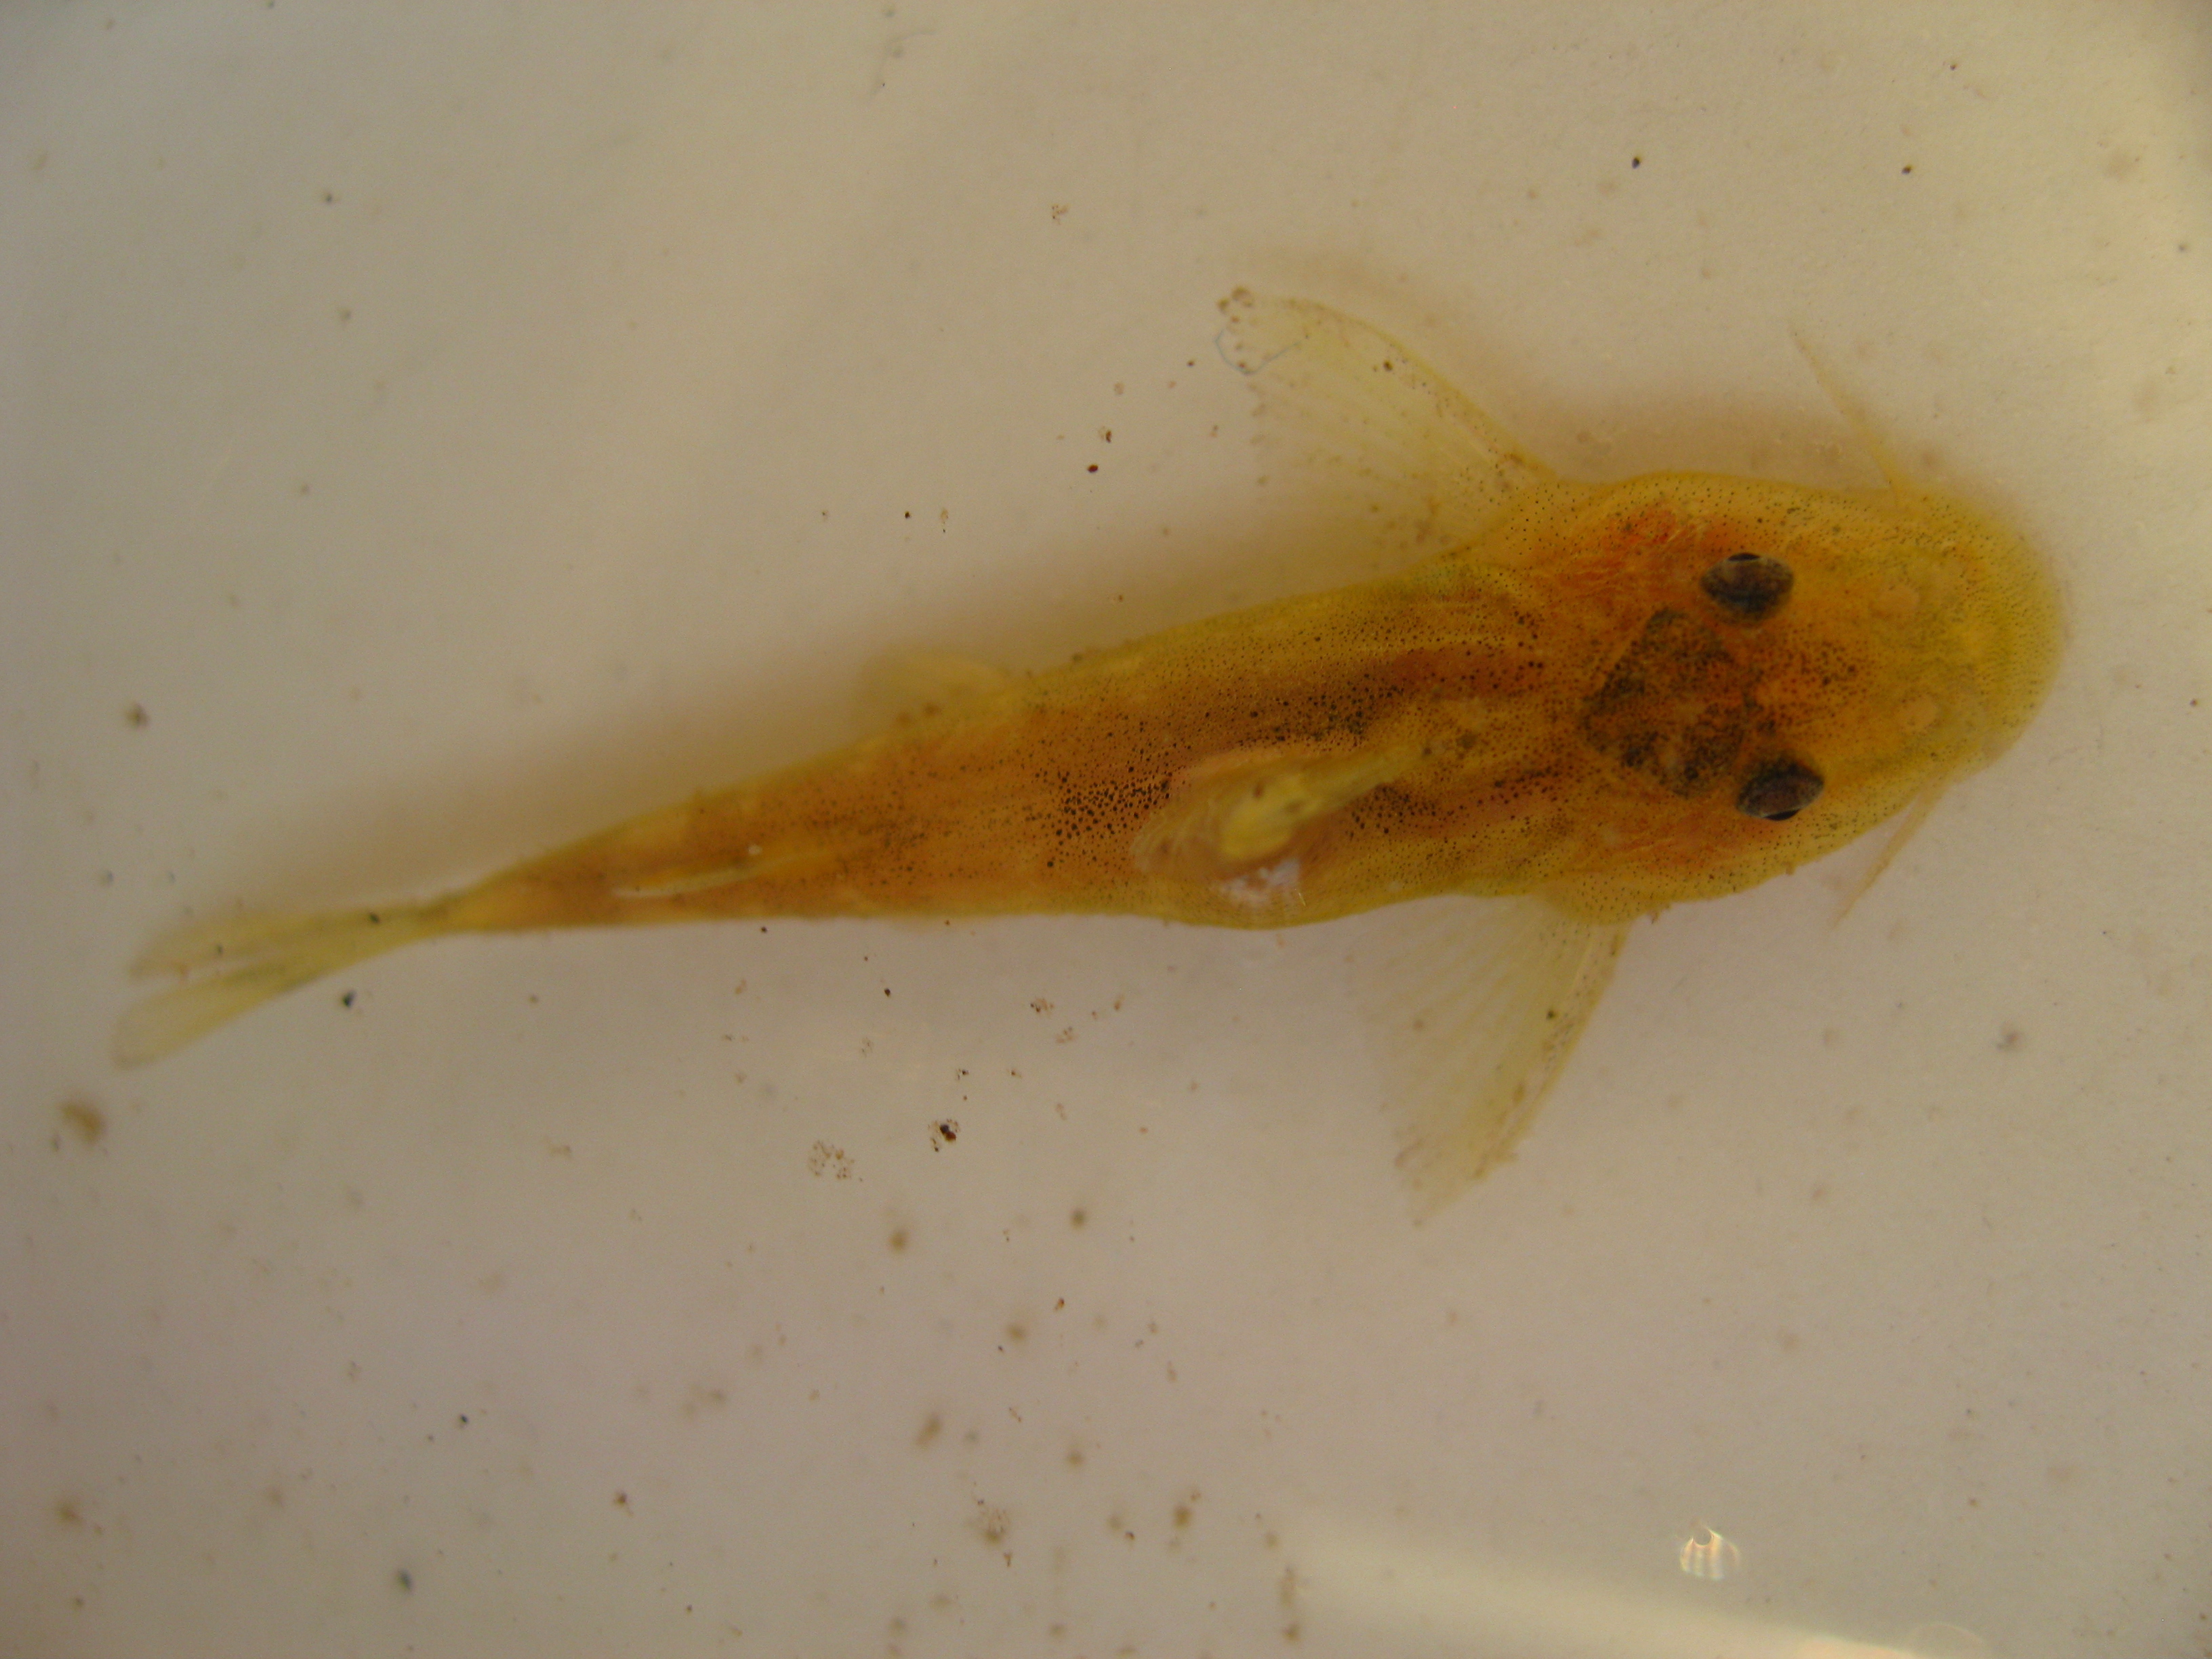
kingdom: Animalia
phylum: Chordata
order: Siluriformes
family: Mochokidae
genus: Chiloglanis
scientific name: Chiloglanis neumanni
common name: Neumann's rock catlet
